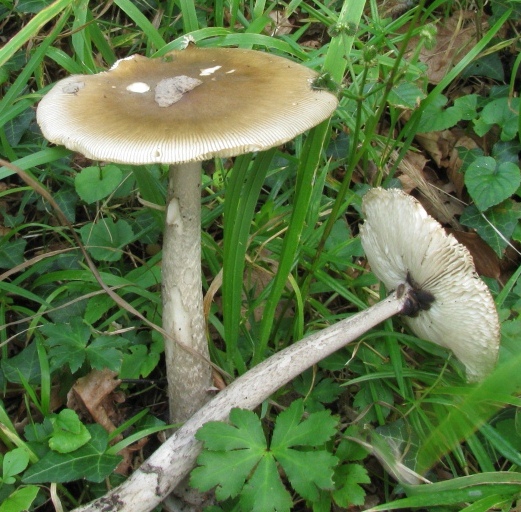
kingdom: Fungi
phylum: Basidiomycota
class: Agaricomycetes
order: Agaricales
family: Amanitaceae
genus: Amanita
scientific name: Amanita ceciliae
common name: stor kam-fluesvamp
